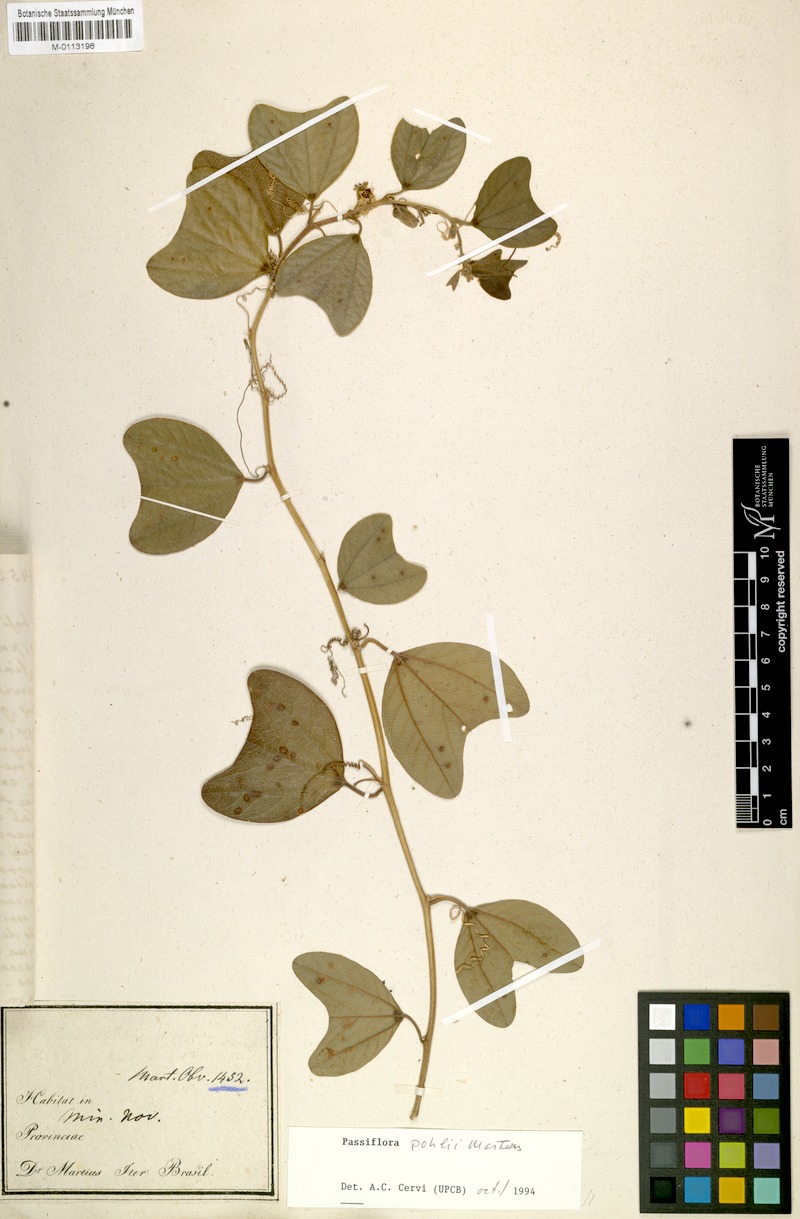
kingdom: Plantae
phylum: Tracheophyta
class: Magnoliopsida
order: Malpighiales
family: Passifloraceae
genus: Passiflora
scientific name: Passiflora pohlii
